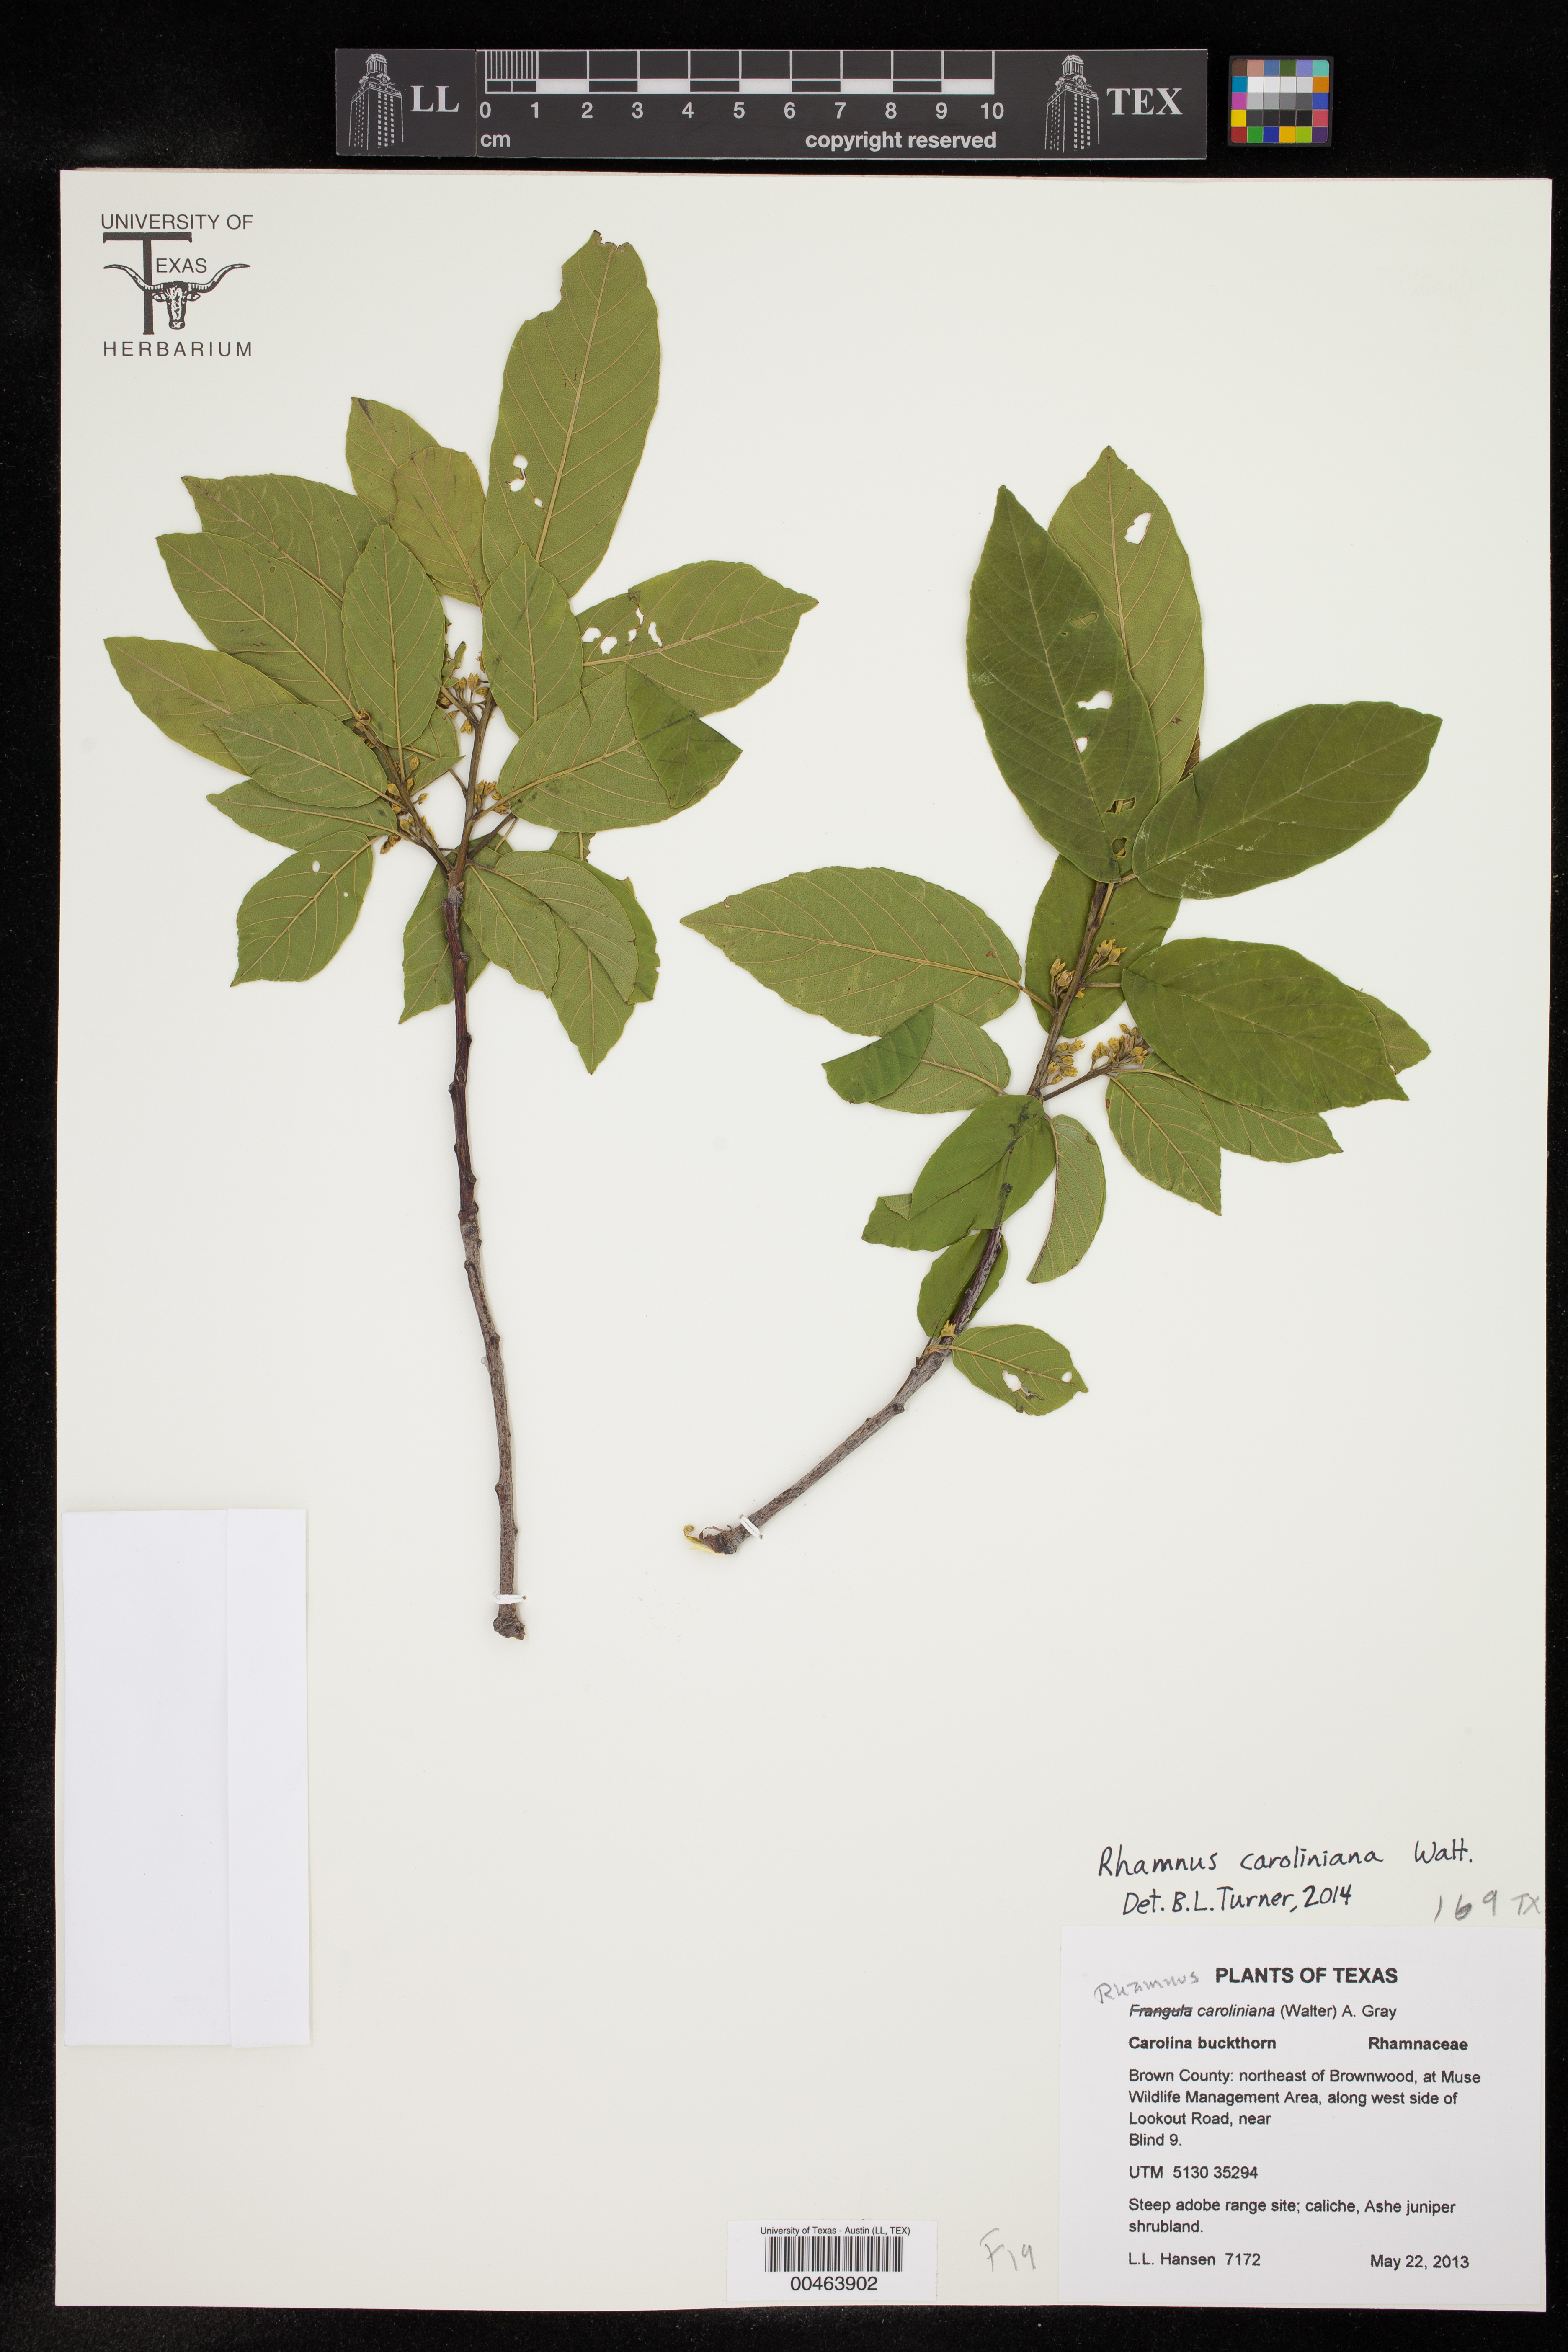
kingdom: Plantae
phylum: Tracheophyta
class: Magnoliopsida
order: Rosales
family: Rhamnaceae
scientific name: Rhamnaceae
